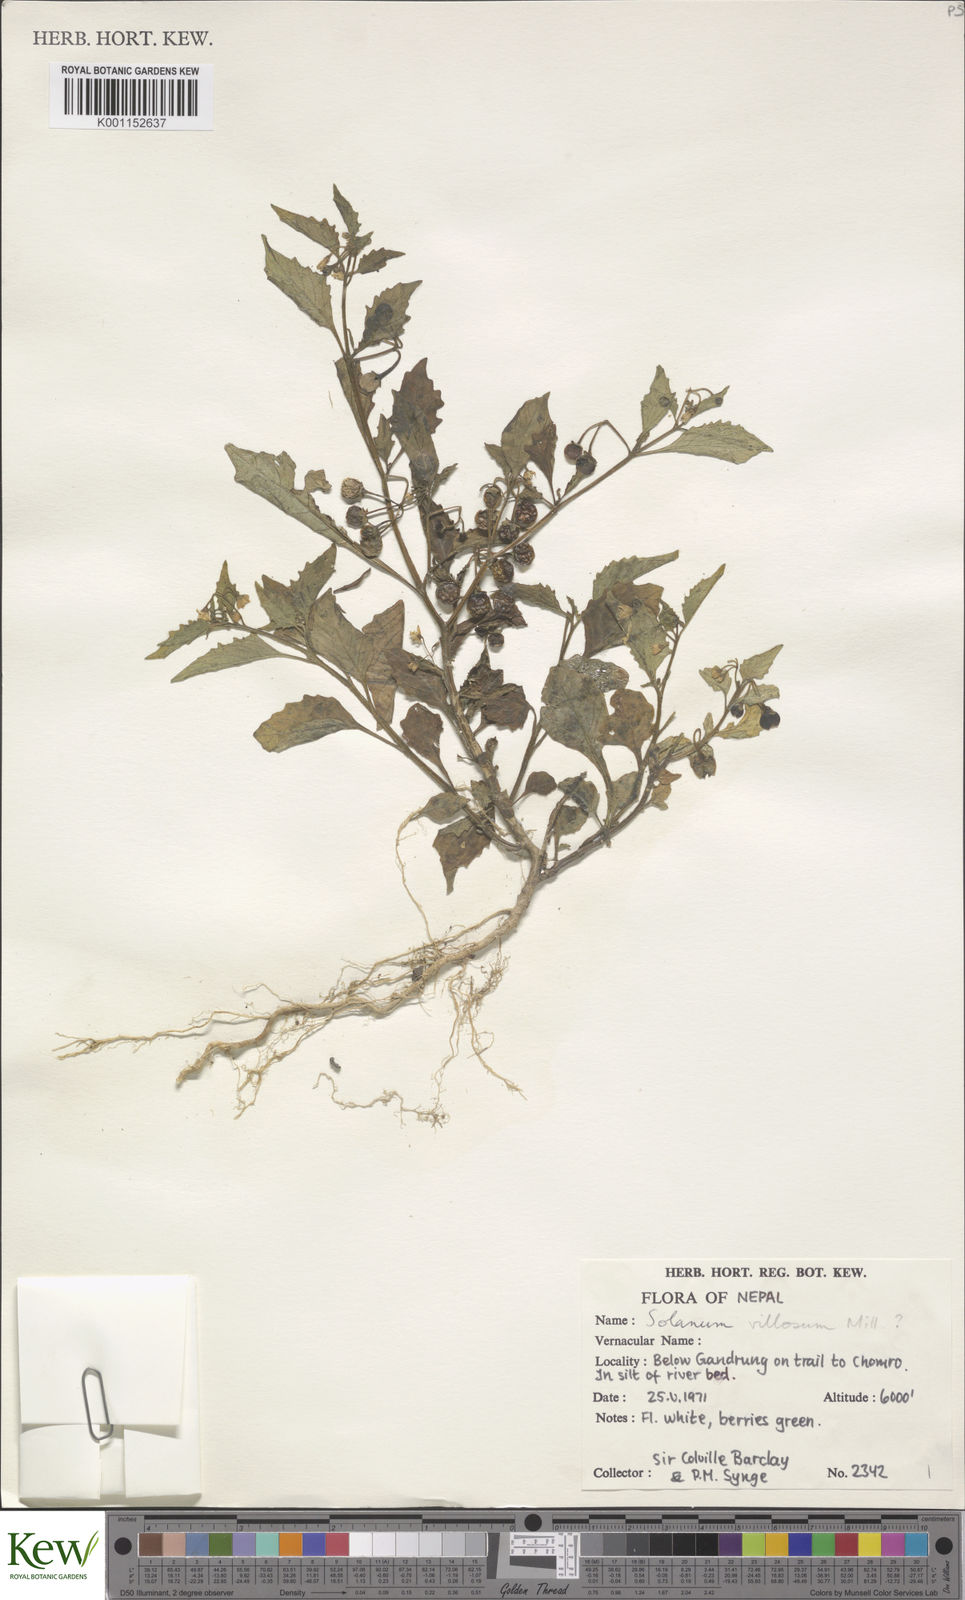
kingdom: Plantae
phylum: Tracheophyta
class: Magnoliopsida
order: Solanales
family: Solanaceae
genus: Solanum
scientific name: Solanum nigrum
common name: Black nightshade
